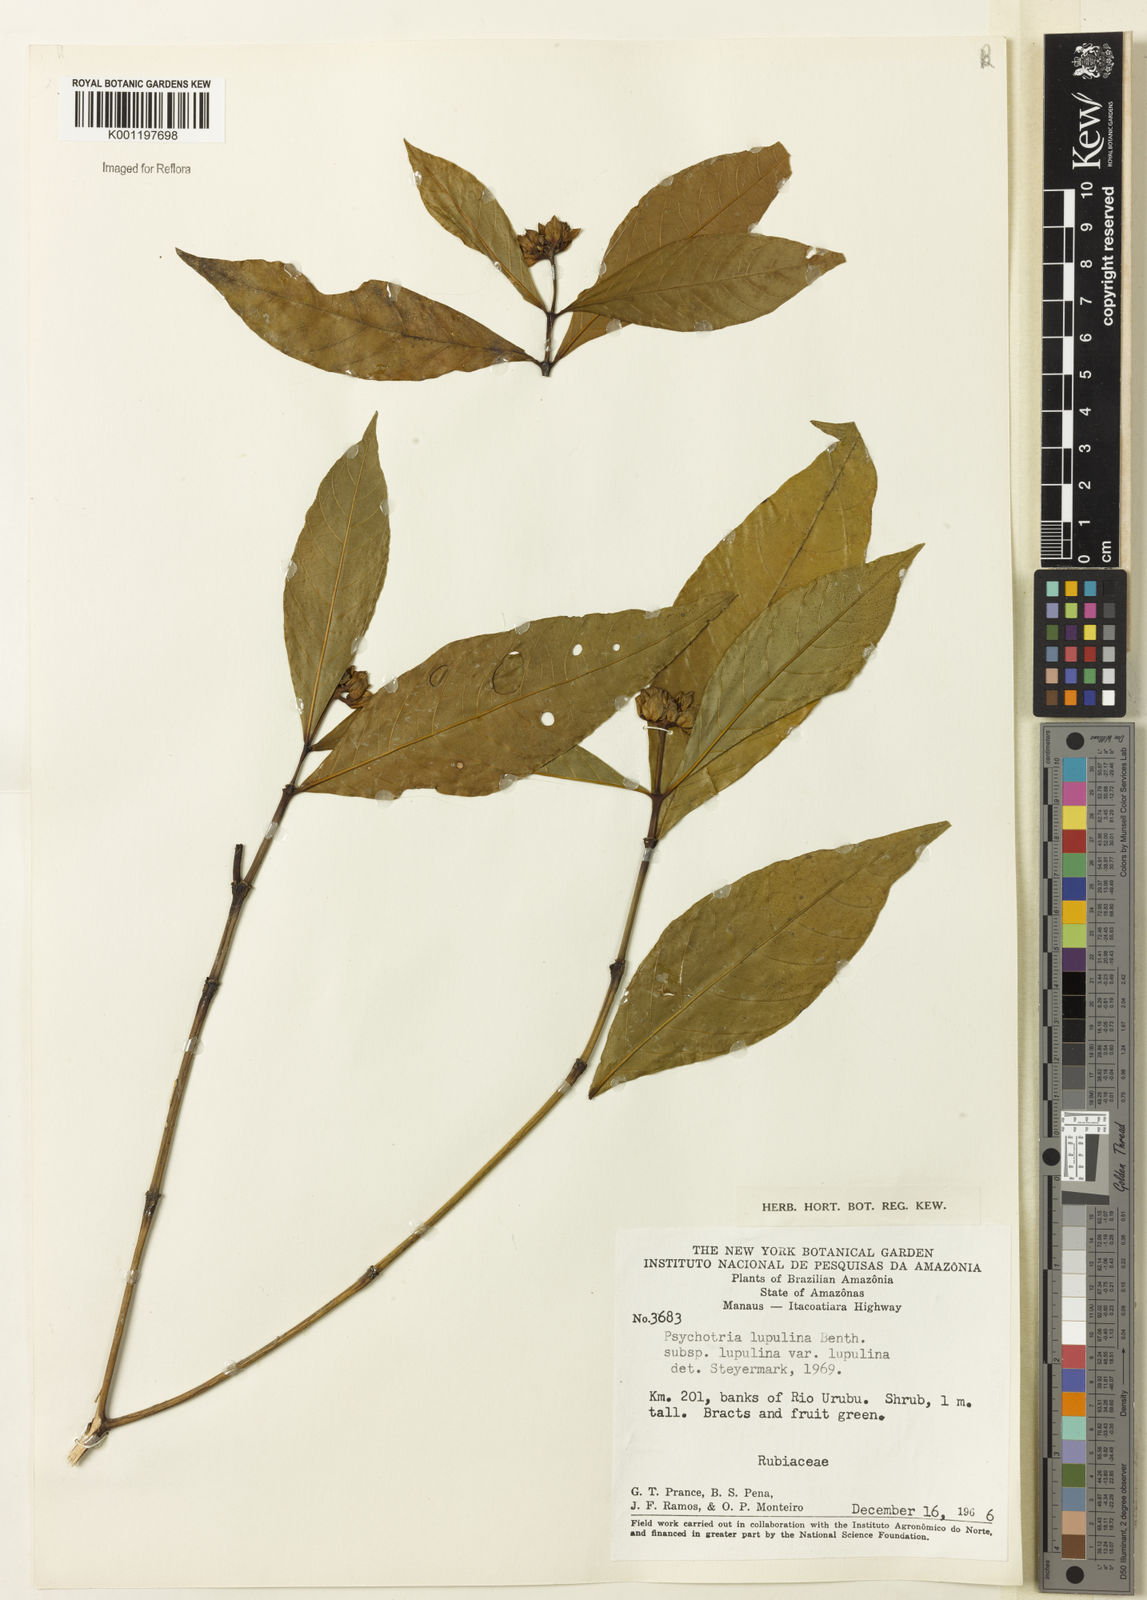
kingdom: Plantae
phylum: Tracheophyta
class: Magnoliopsida
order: Gentianales
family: Rubiaceae
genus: Palicourea
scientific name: Palicourea justiciifolia
